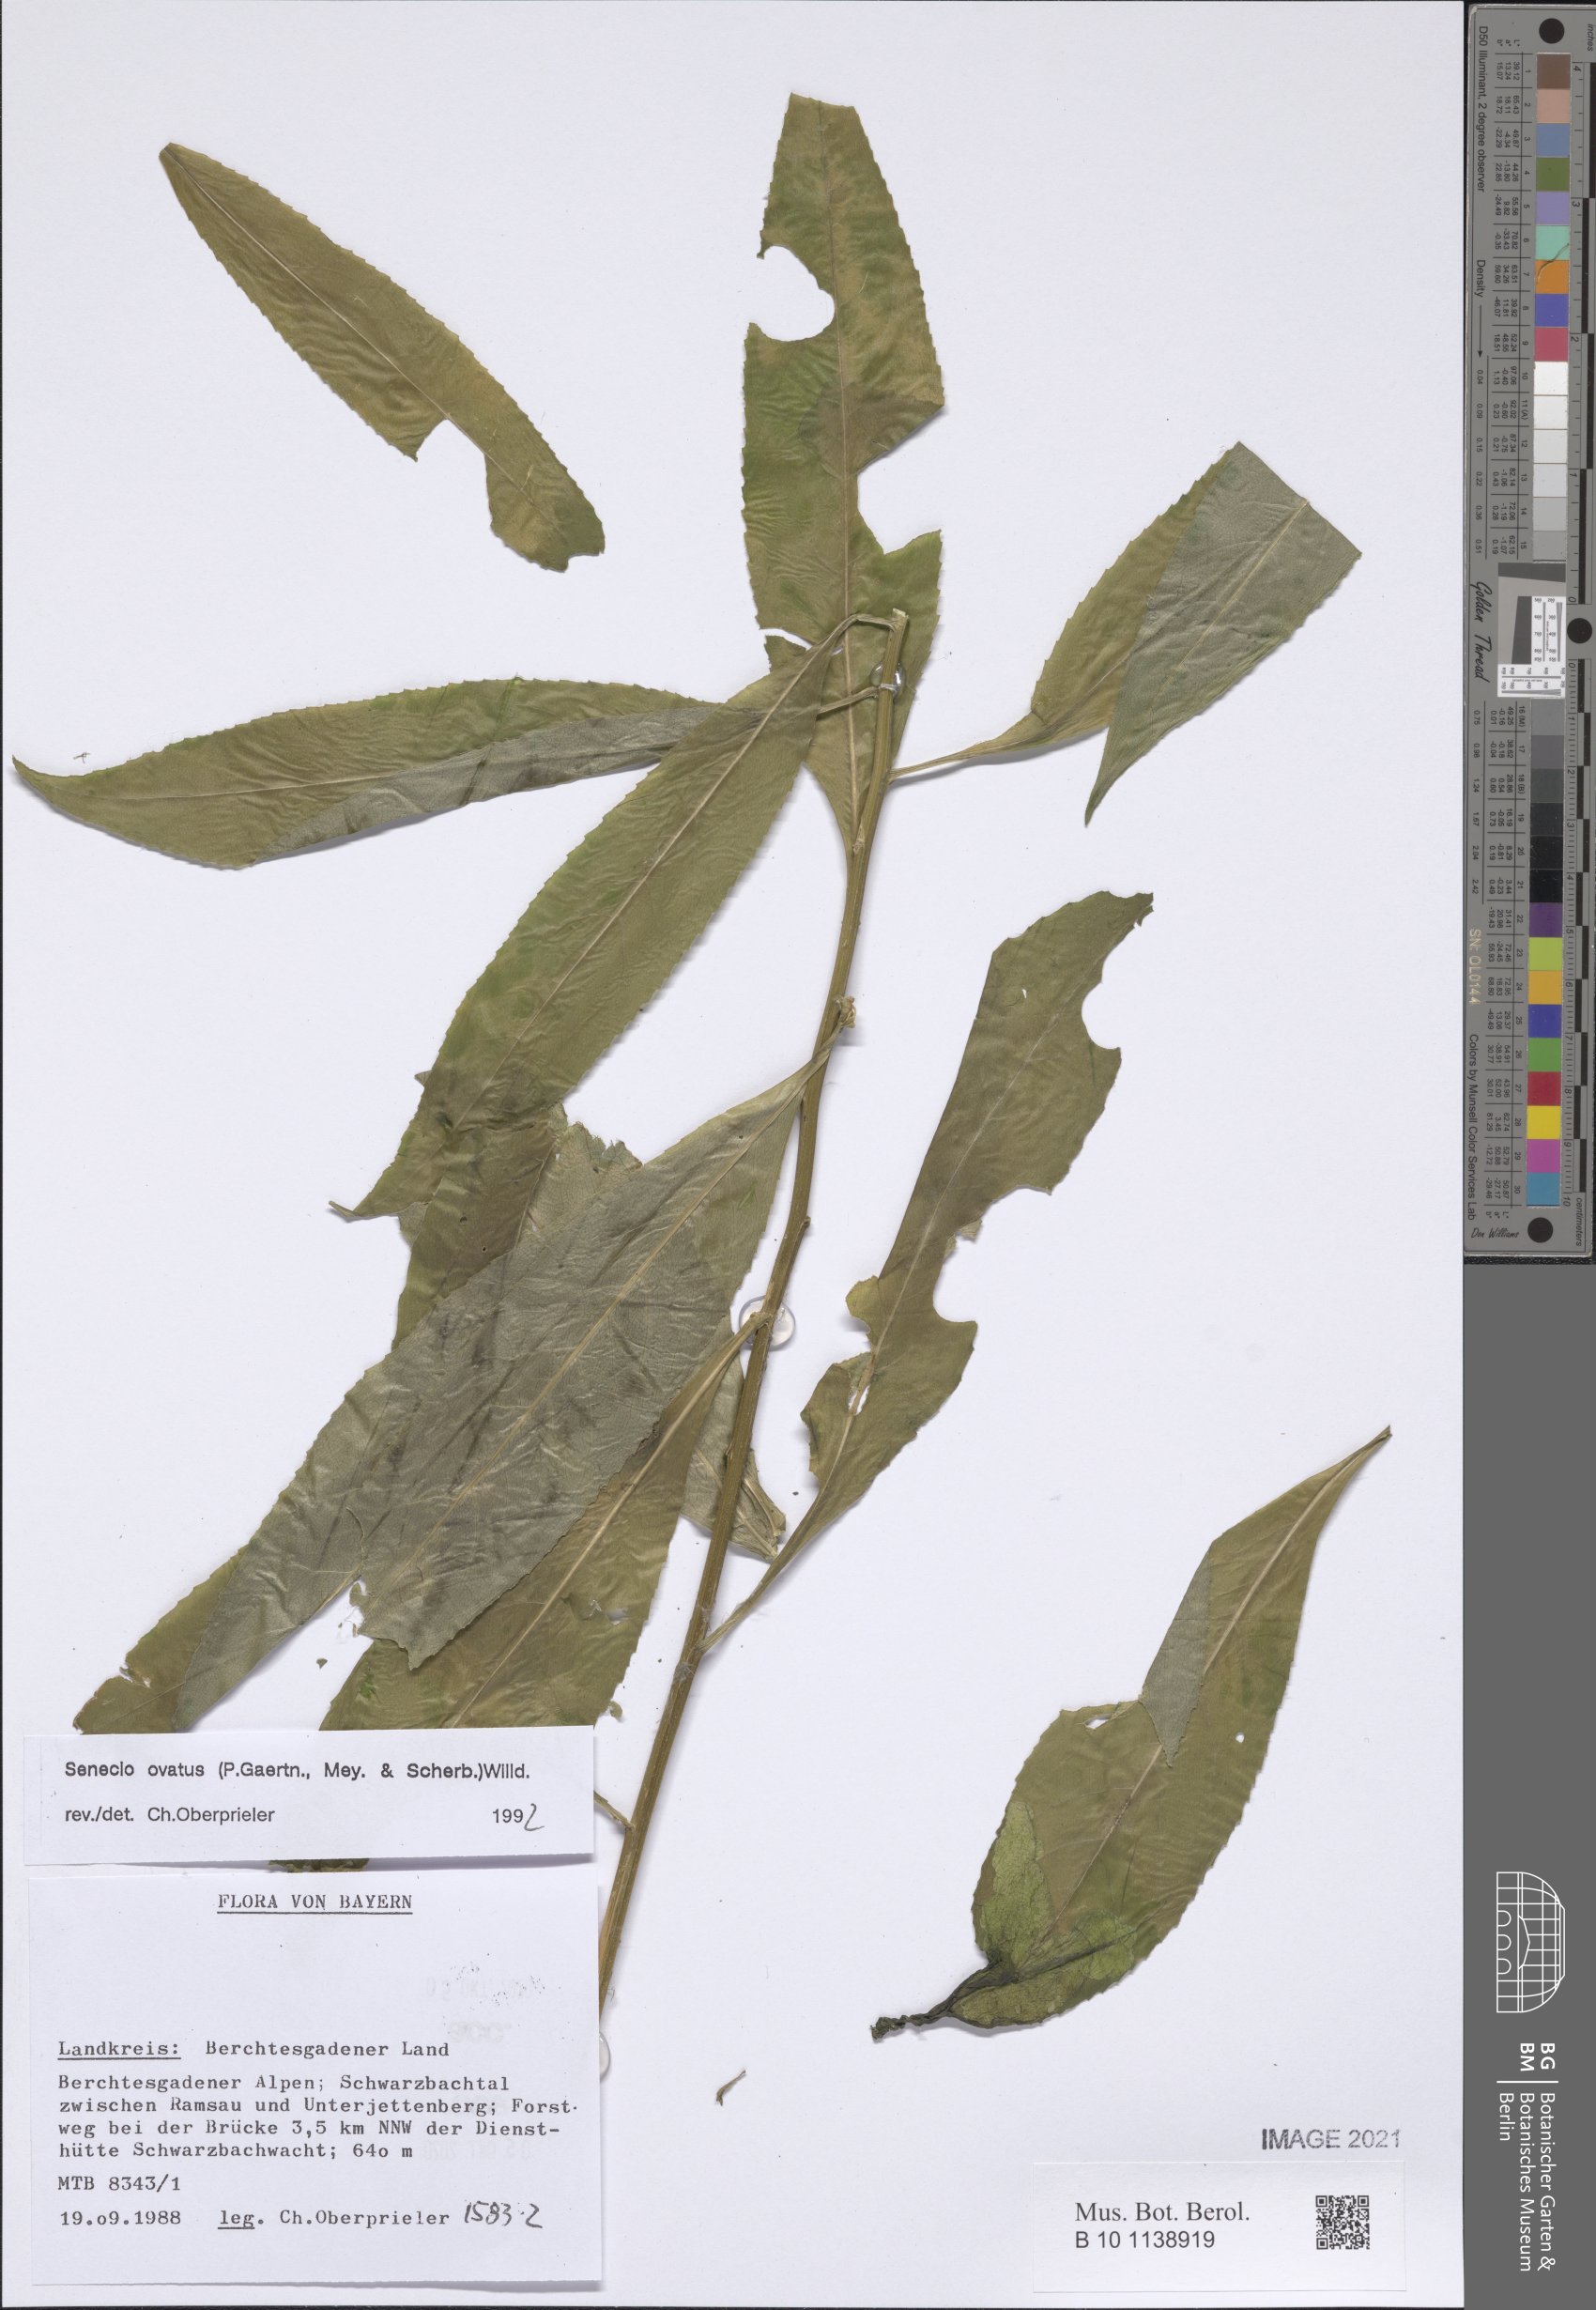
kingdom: Plantae
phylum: Tracheophyta
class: Magnoliopsida
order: Asterales
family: Asteraceae
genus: Senecio
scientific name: Senecio ovatus
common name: Wood ragwort
